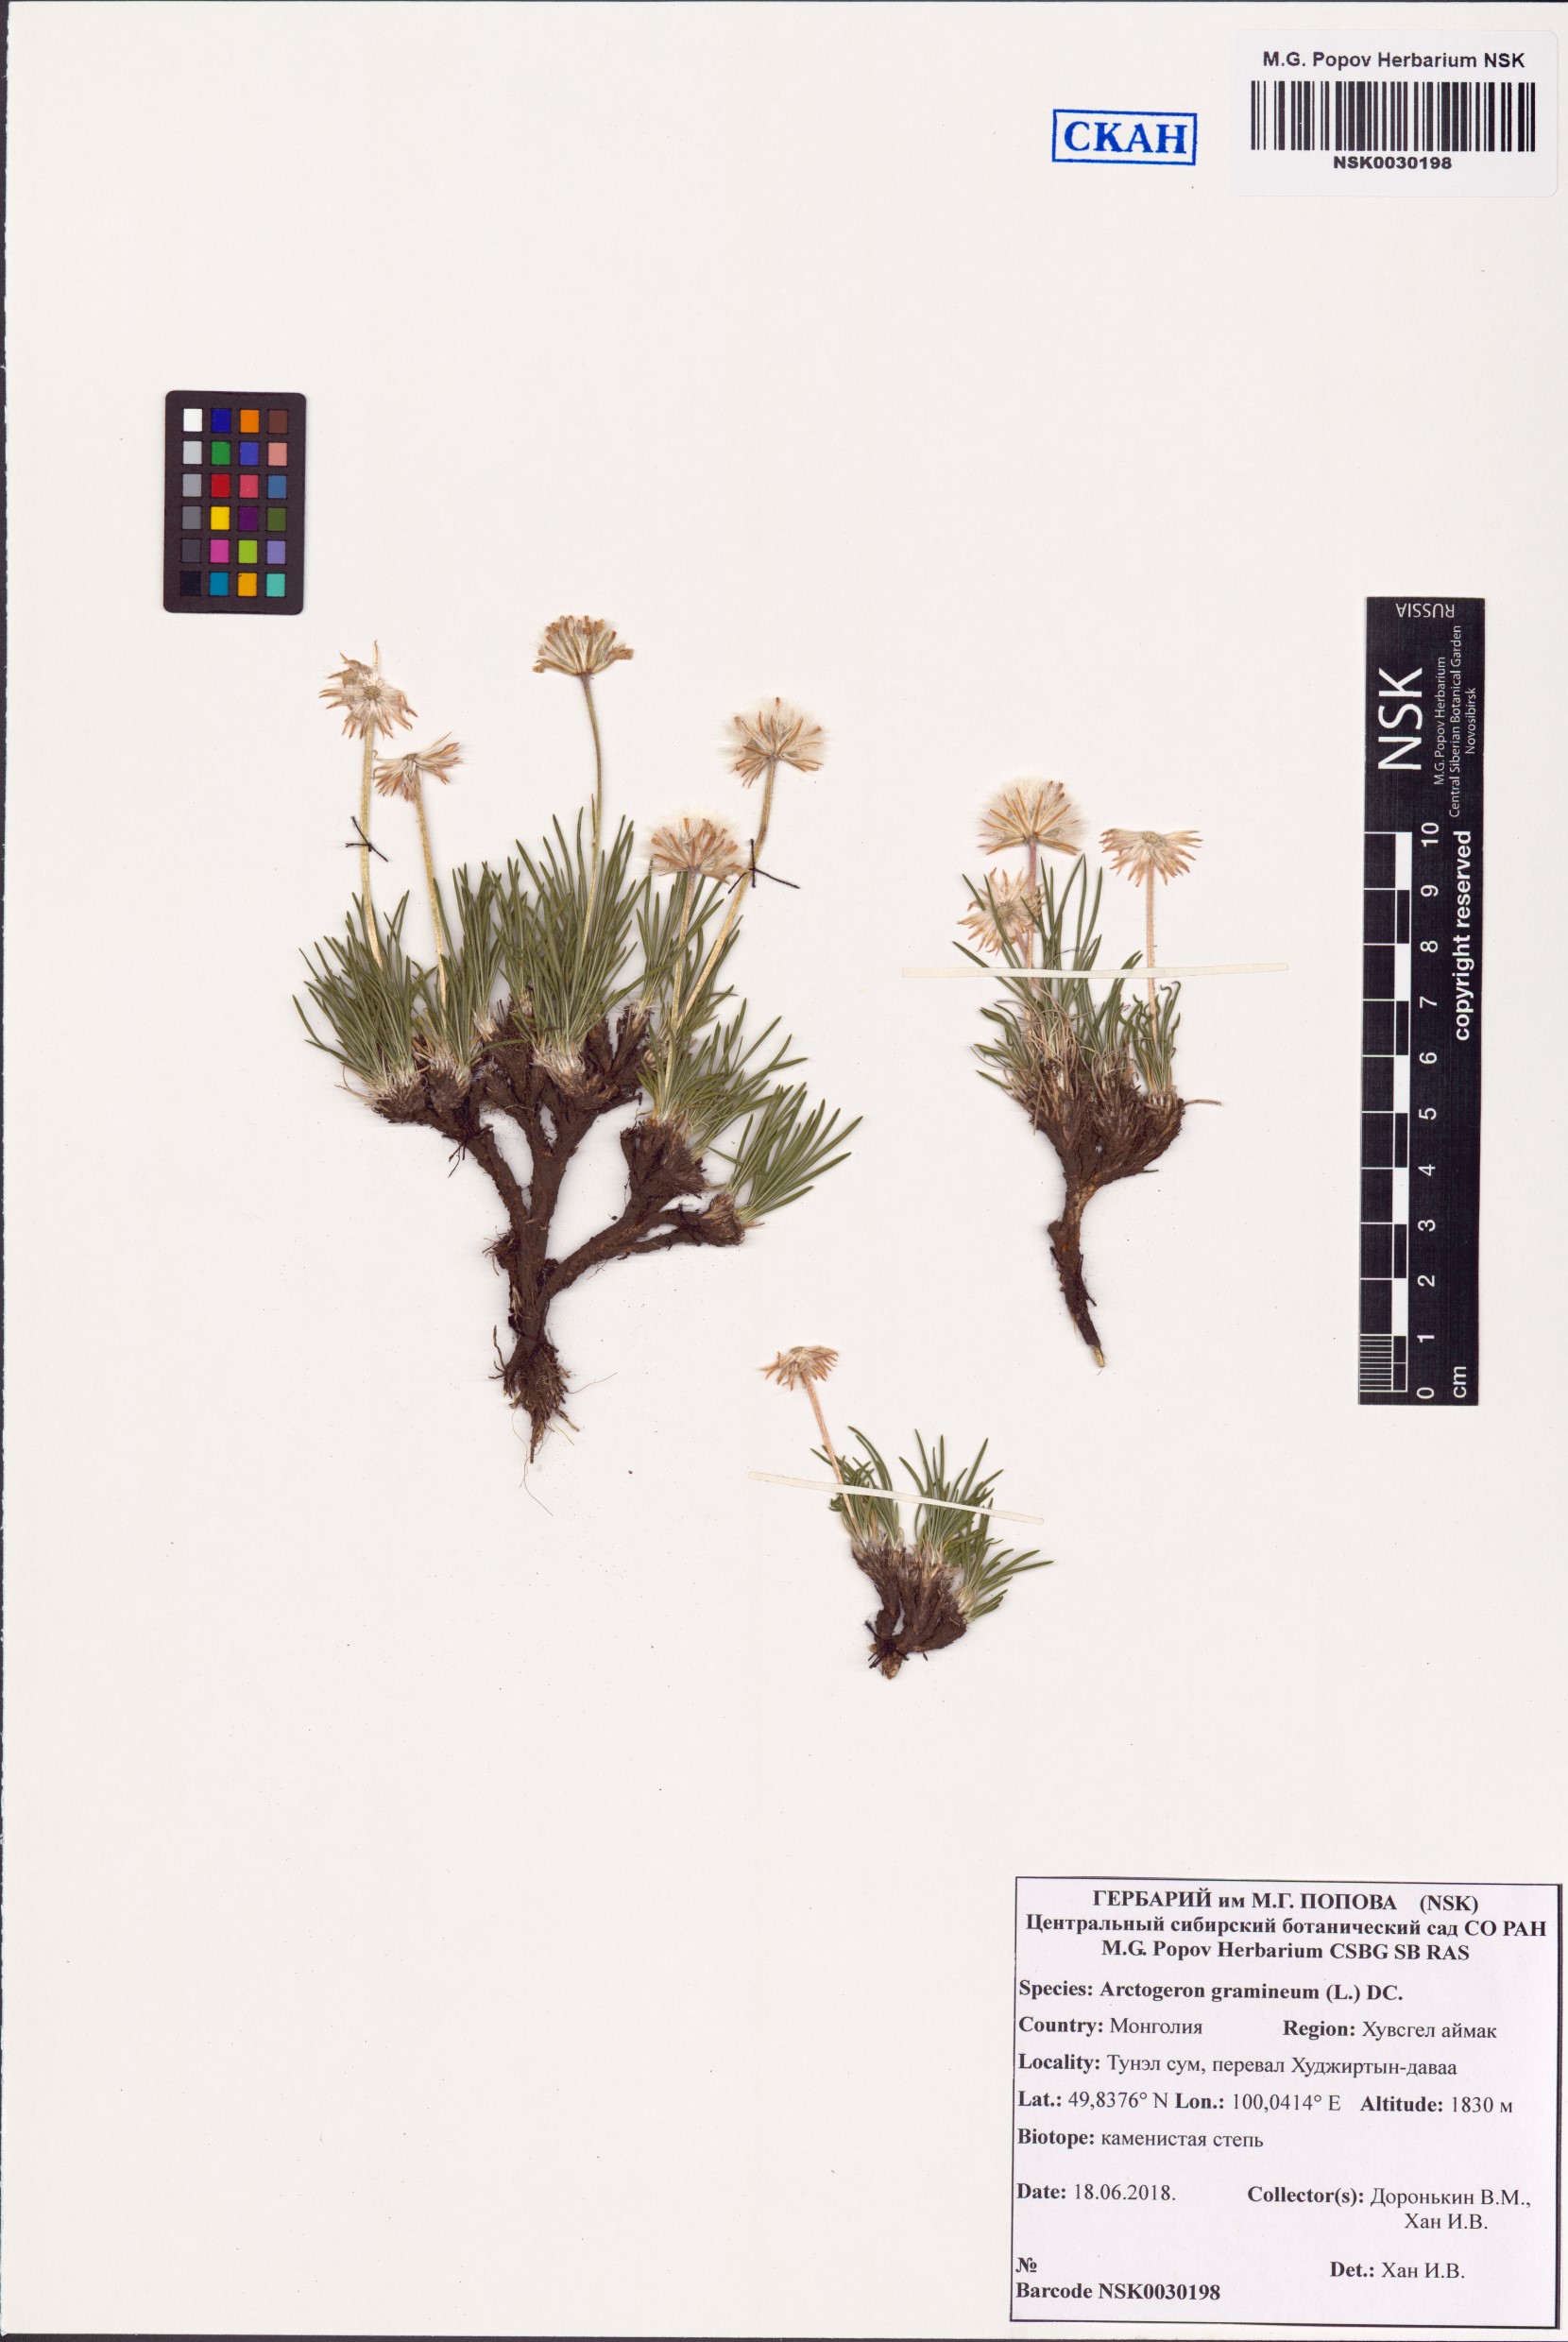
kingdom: Plantae
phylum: Tracheophyta
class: Magnoliopsida
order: Asterales
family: Asteraceae
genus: Arctogeron
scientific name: Arctogeron gramineum
